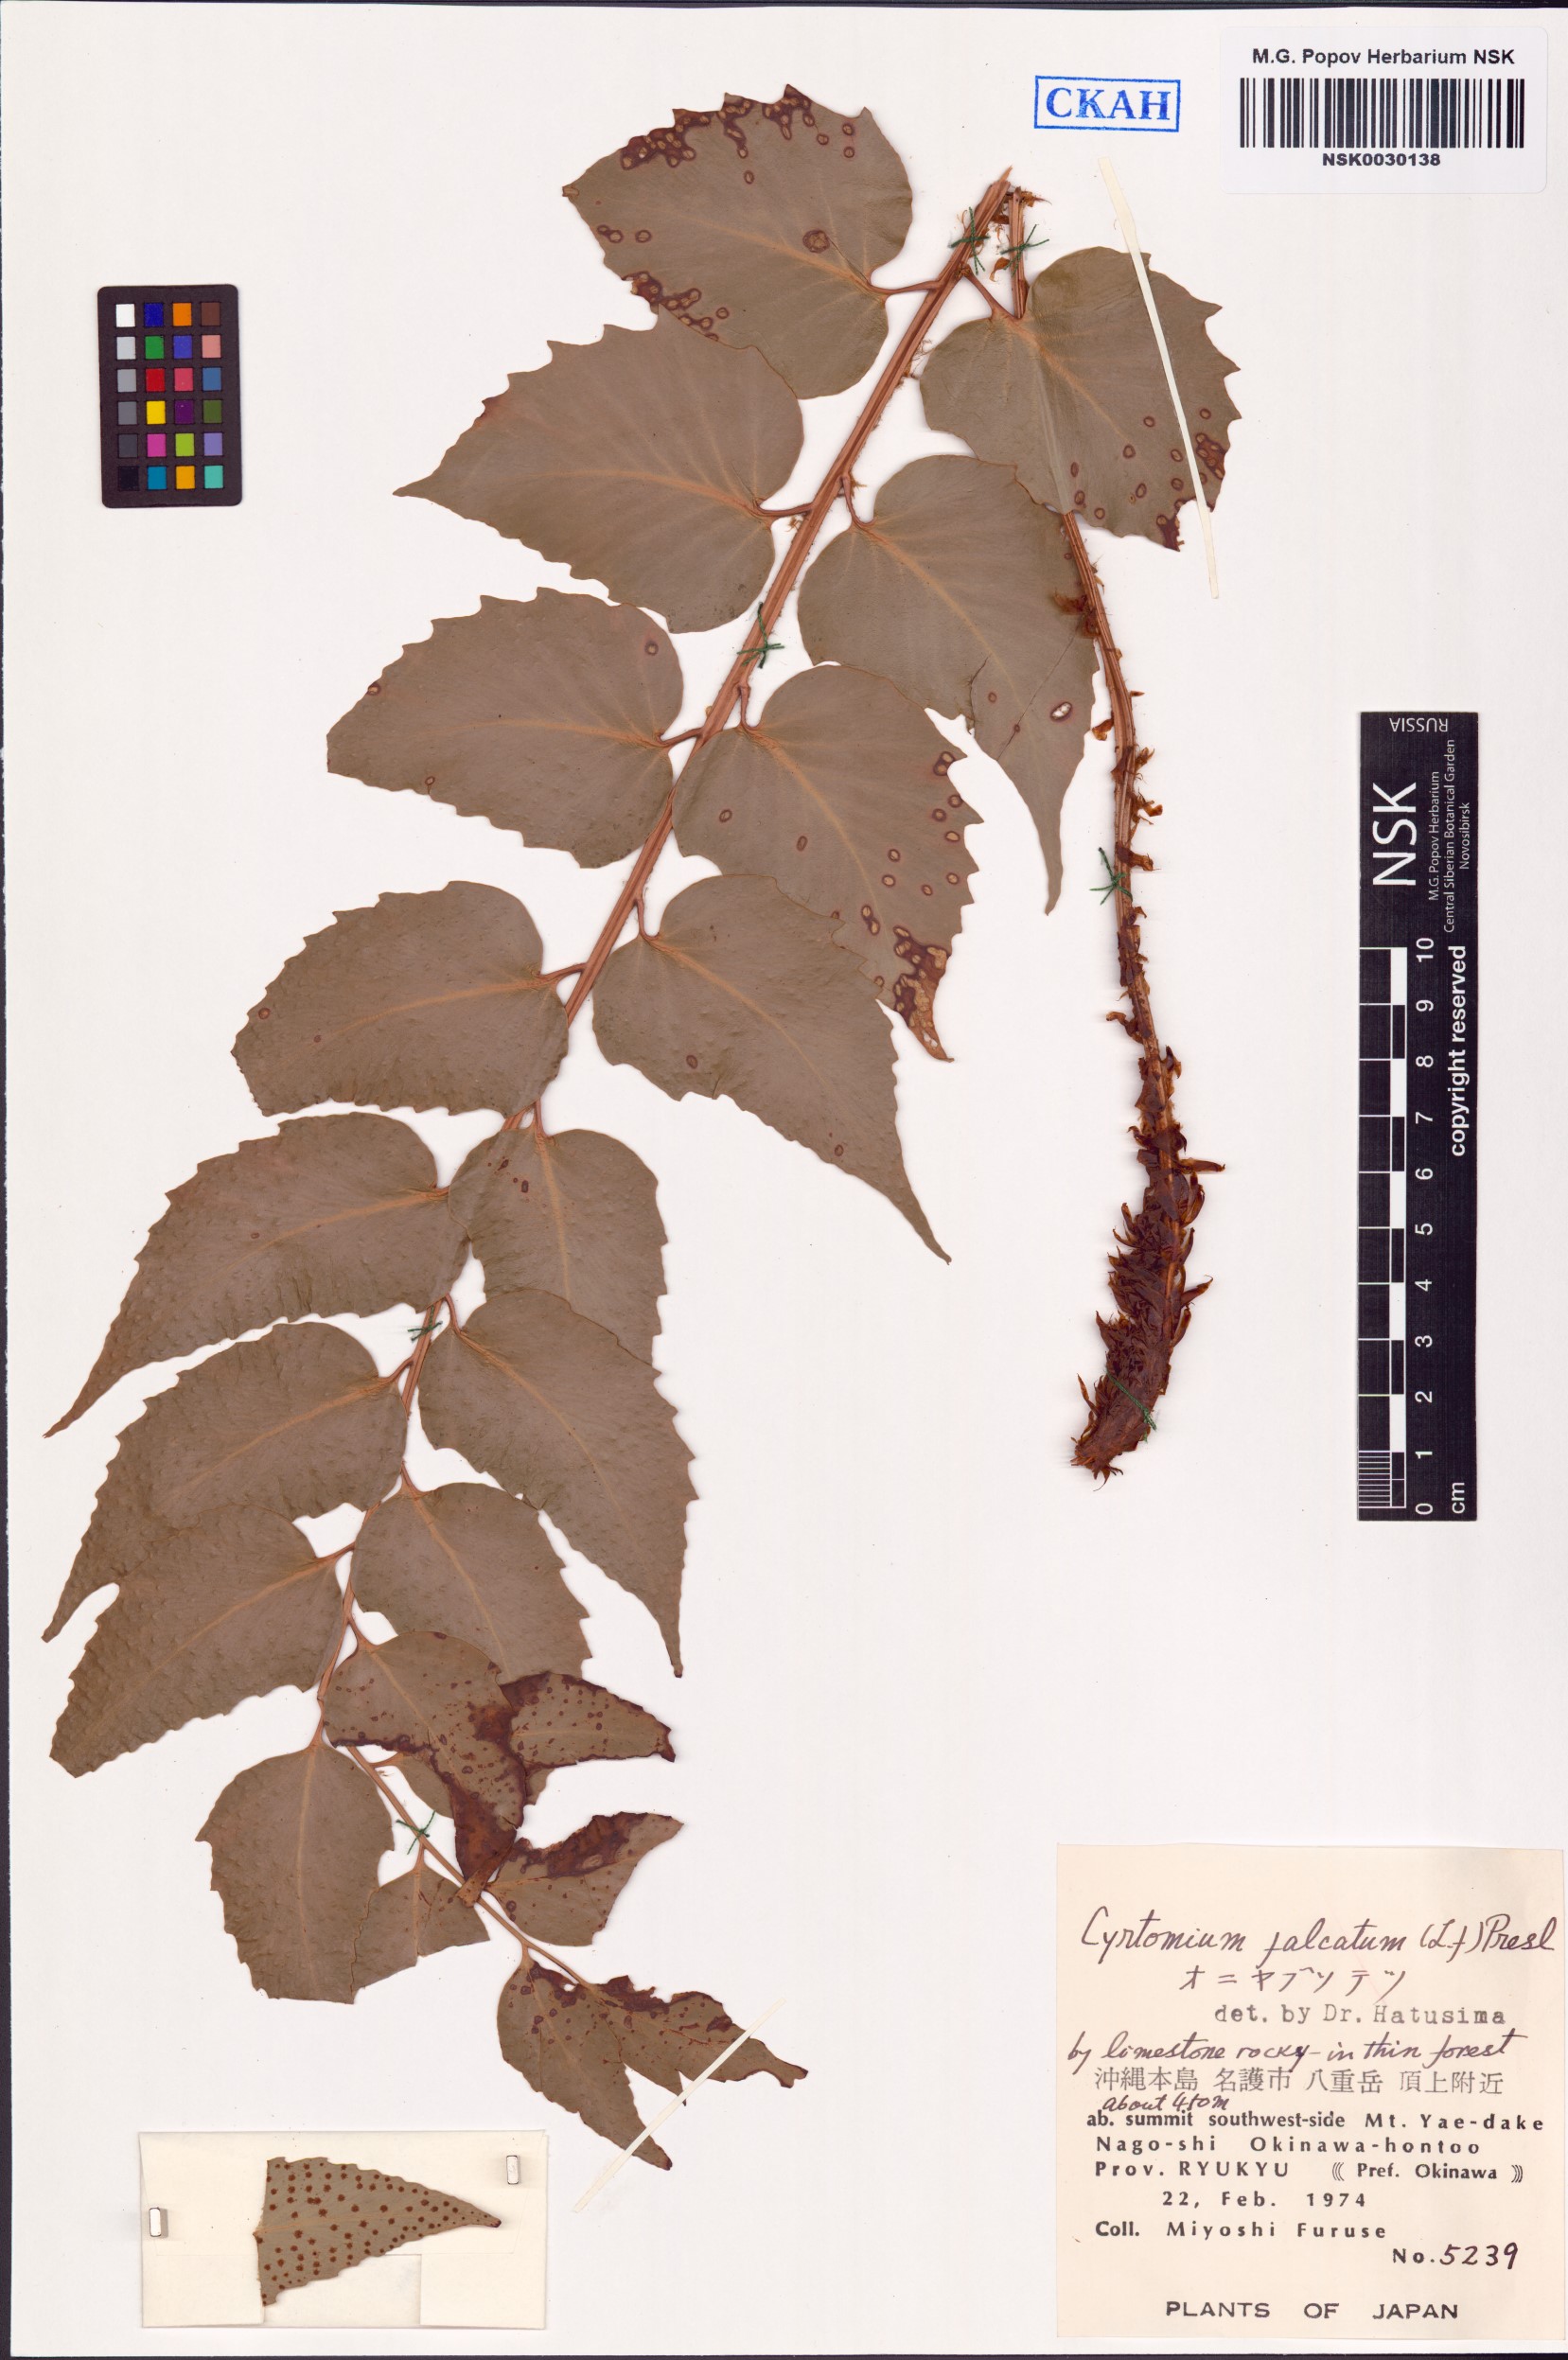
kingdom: Plantae
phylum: Tracheophyta
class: Polypodiopsida
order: Polypodiales
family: Dryopteridaceae
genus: Cyrtomium
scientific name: Cyrtomium falcatum
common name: House holly-fern
